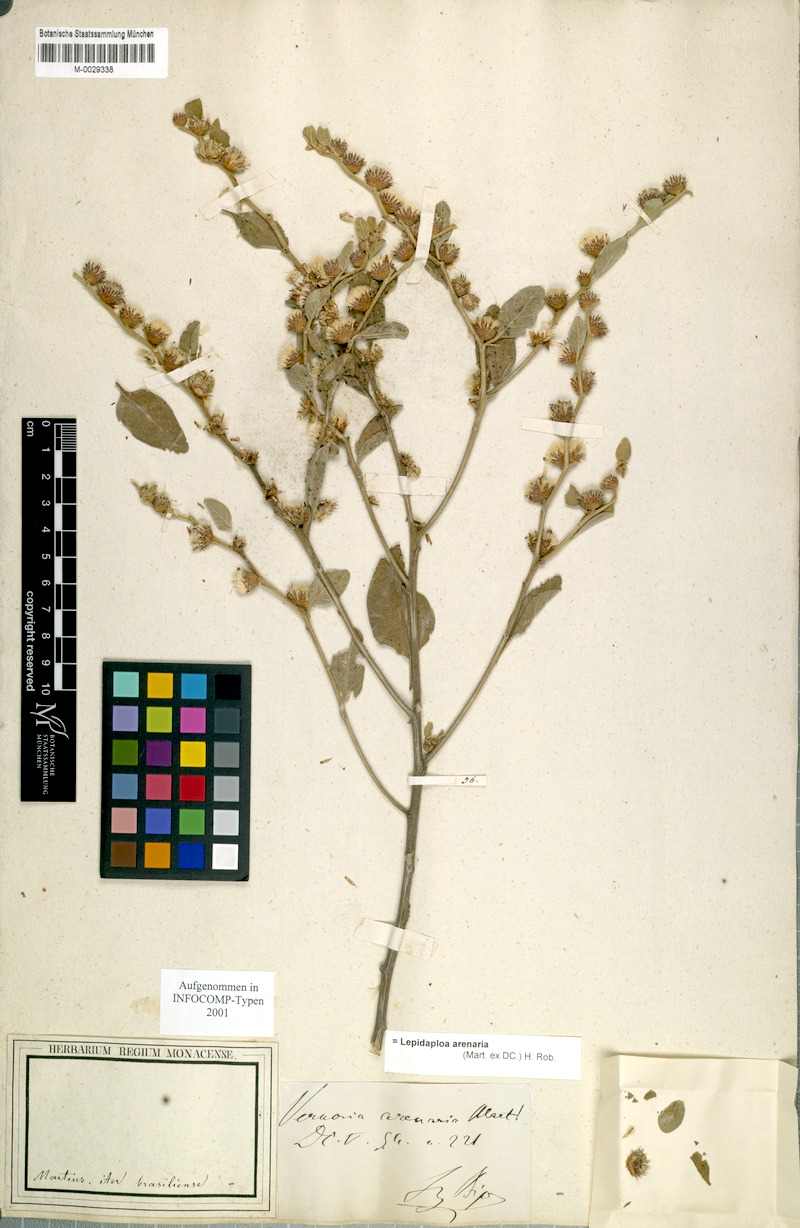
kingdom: Plantae
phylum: Tracheophyta
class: Magnoliopsida
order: Asterales
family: Asteraceae
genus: Lepidaploa
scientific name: Lepidaploa arenaria
